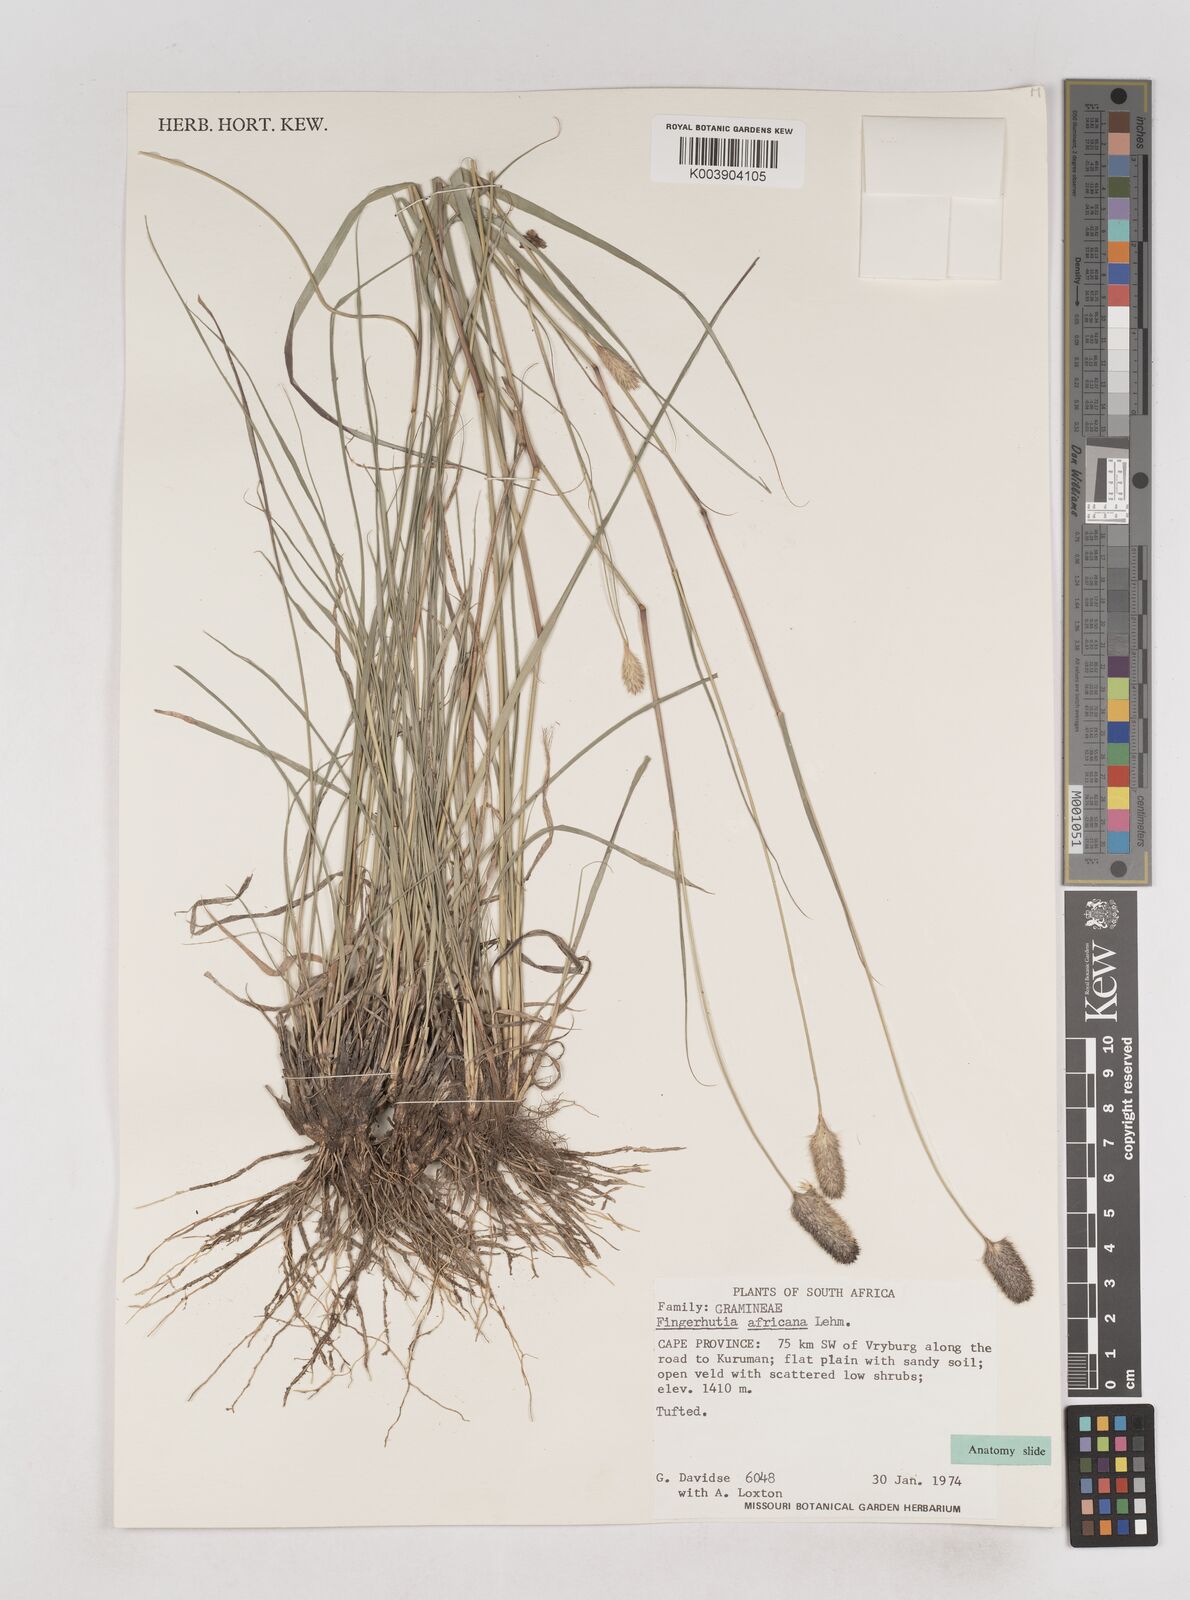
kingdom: Plantae
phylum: Tracheophyta
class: Liliopsida
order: Poales
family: Poaceae
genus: Fingerhuthia
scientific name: Fingerhuthia africana
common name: Zulu fescue
